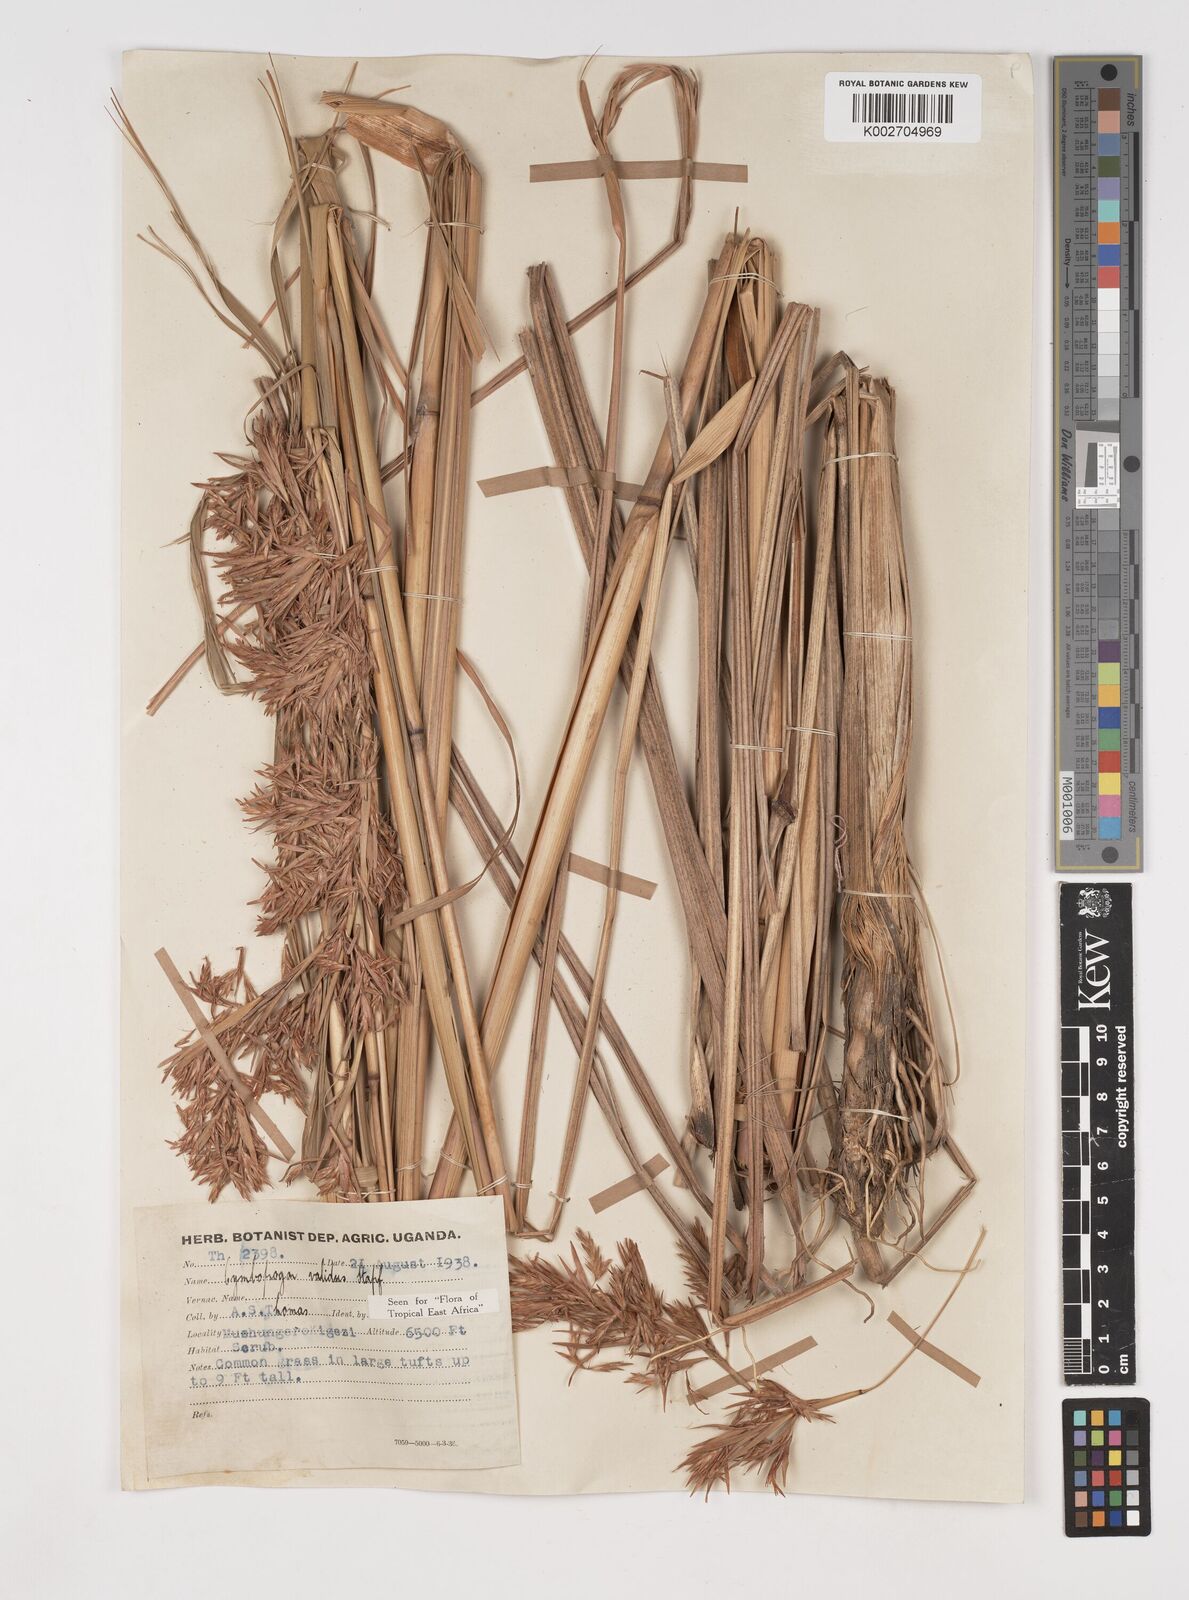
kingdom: Plantae
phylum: Tracheophyta
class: Liliopsida
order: Poales
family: Poaceae
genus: Cymbopogon
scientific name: Cymbopogon nardus
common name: Giant turpentine grass
